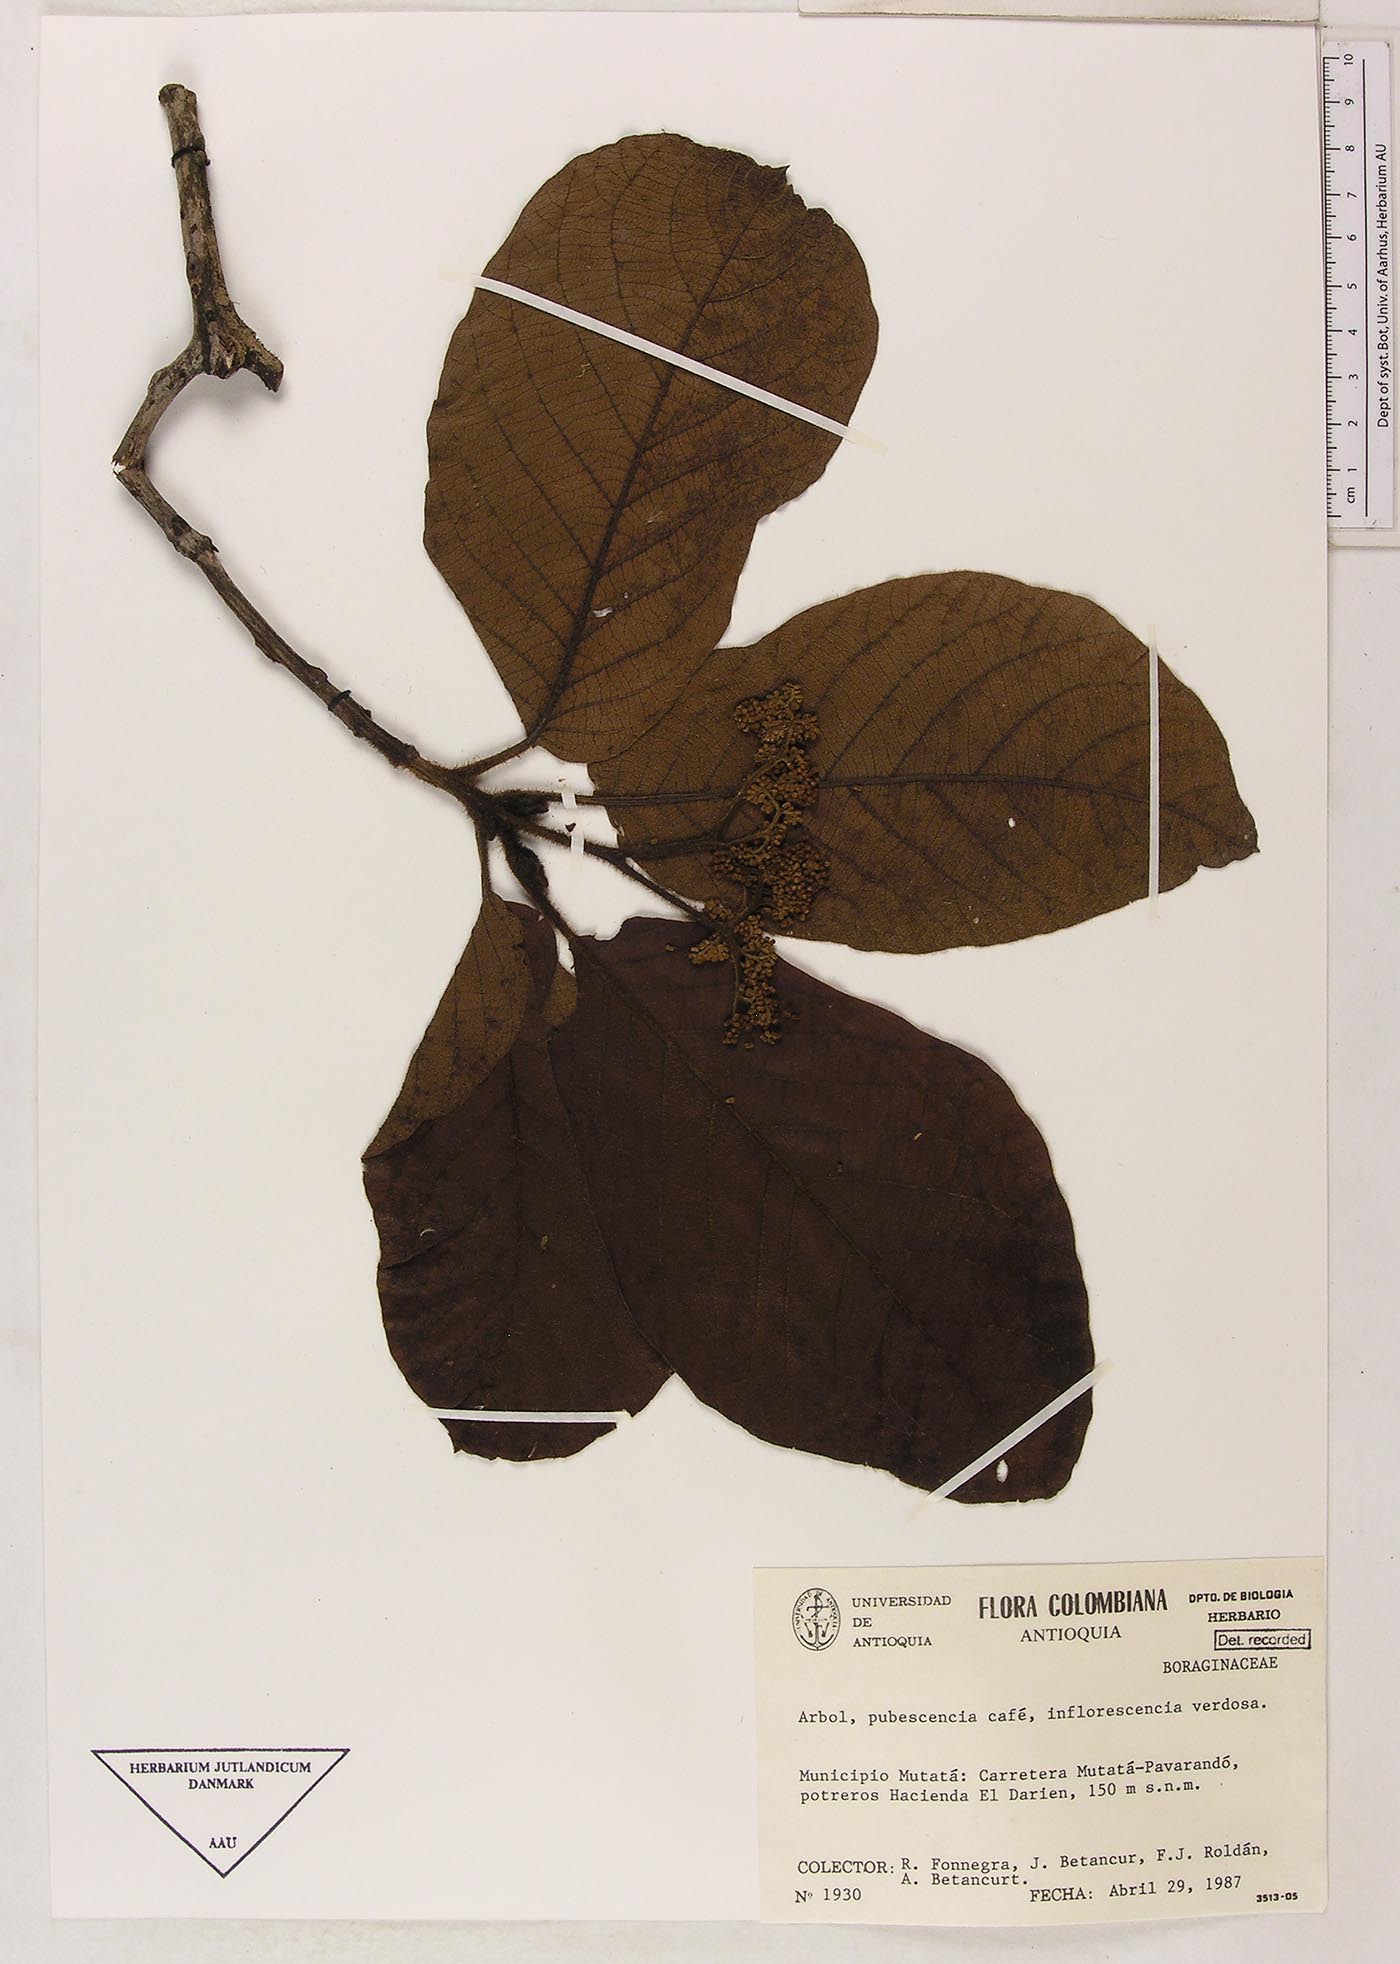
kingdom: Plantae
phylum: Tracheophyta
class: Magnoliopsida
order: Boraginales
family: Cordiaceae
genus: Cordia
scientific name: Cordia
